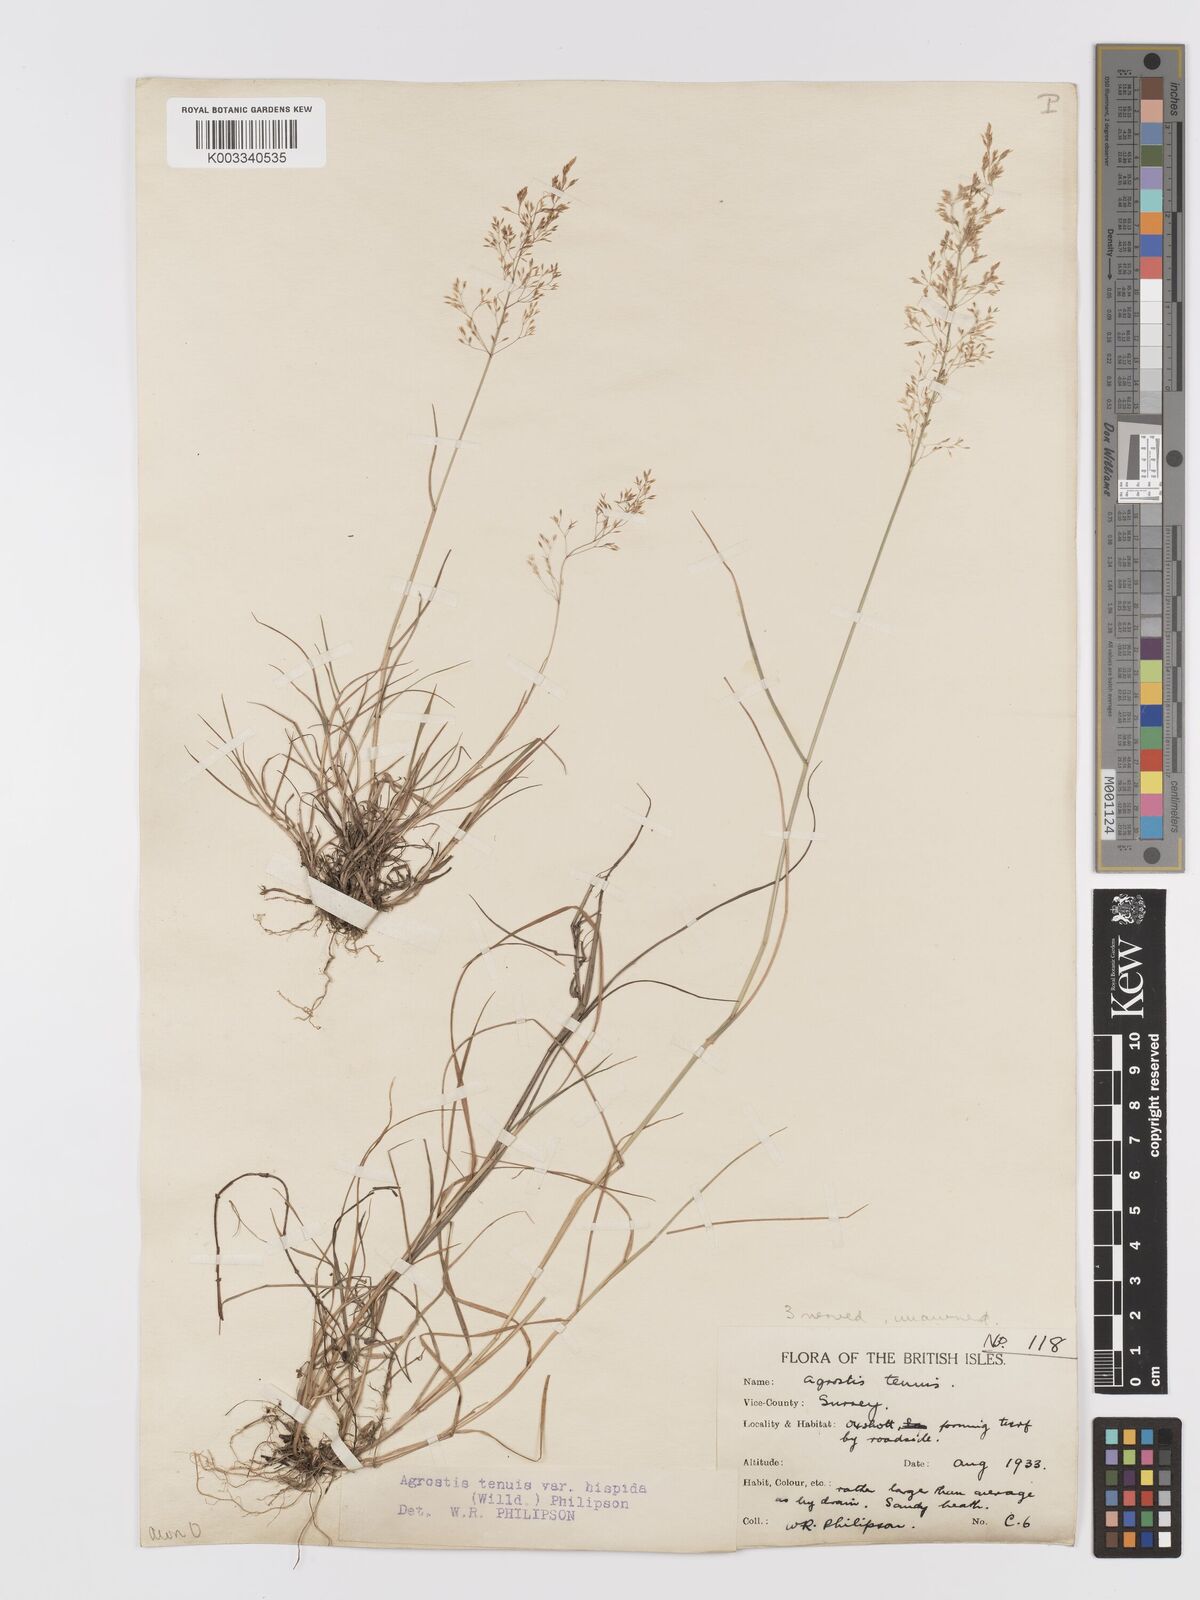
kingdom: Plantae
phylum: Tracheophyta
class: Liliopsida
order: Poales
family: Poaceae
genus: Agrostis
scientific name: Agrostis capillaris
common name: Colonial bentgrass
